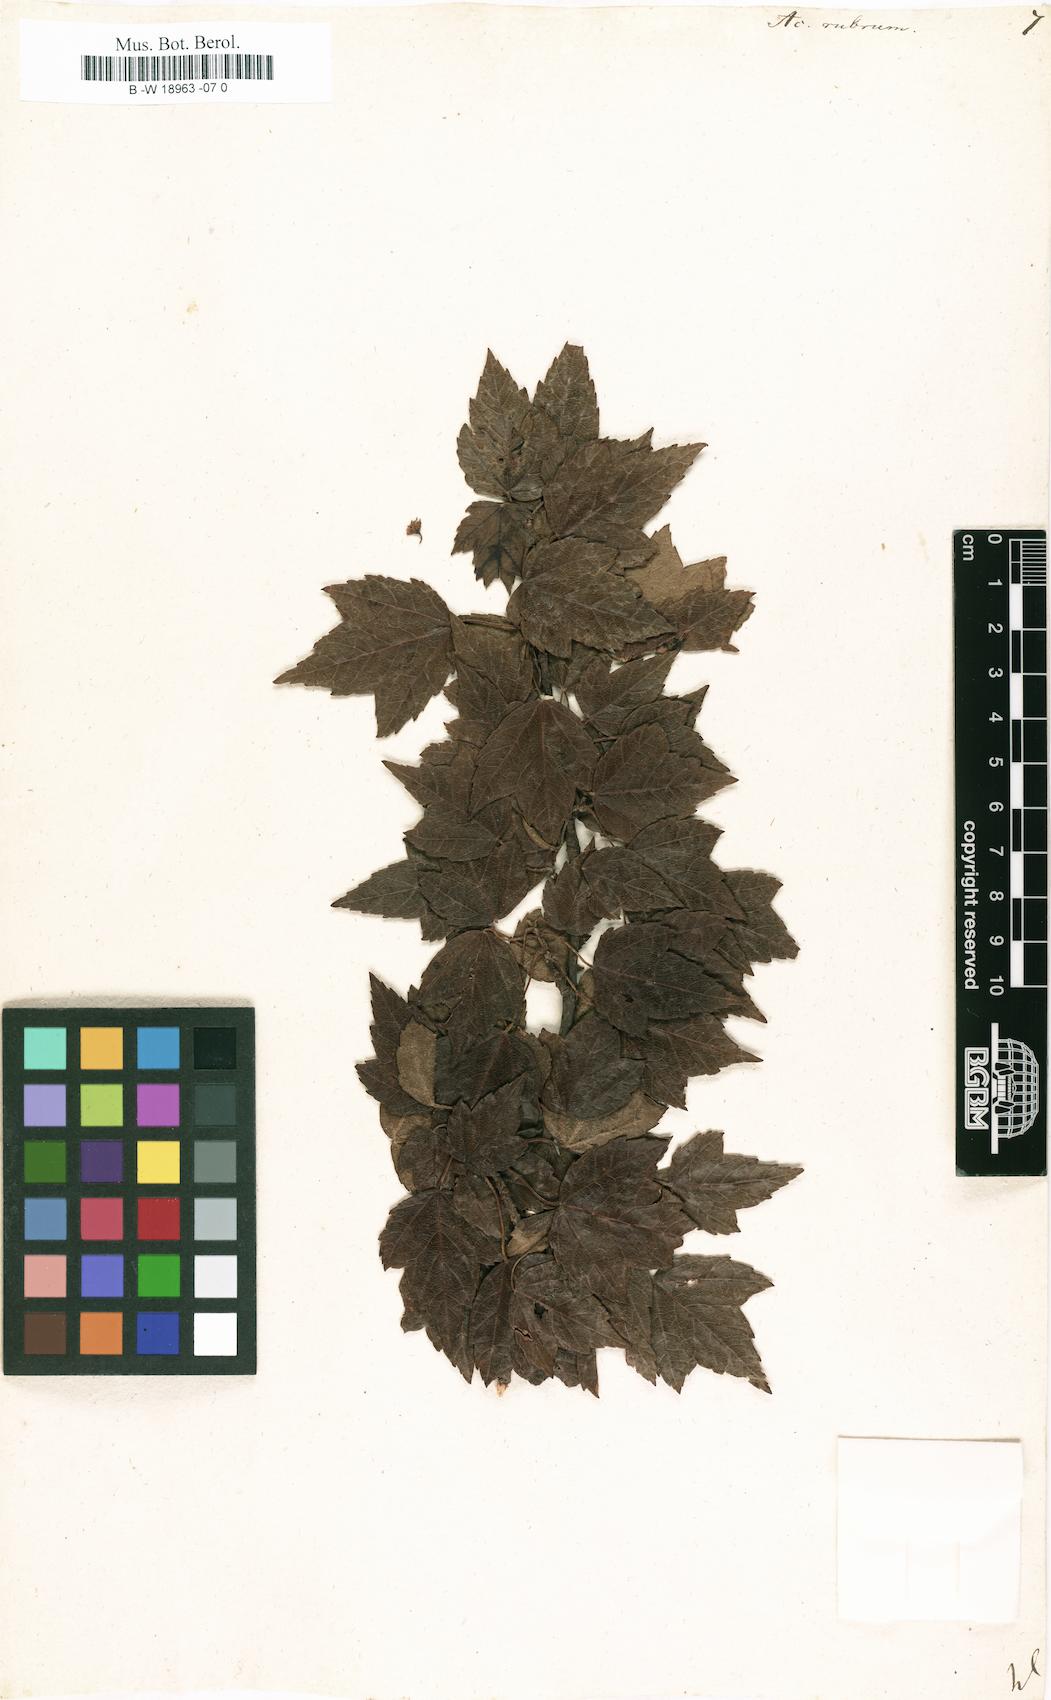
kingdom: Plantae
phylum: Tracheophyta
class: Magnoliopsida
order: Sapindales
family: Sapindaceae
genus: Acer
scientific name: Acer rubrum
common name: Red maple
